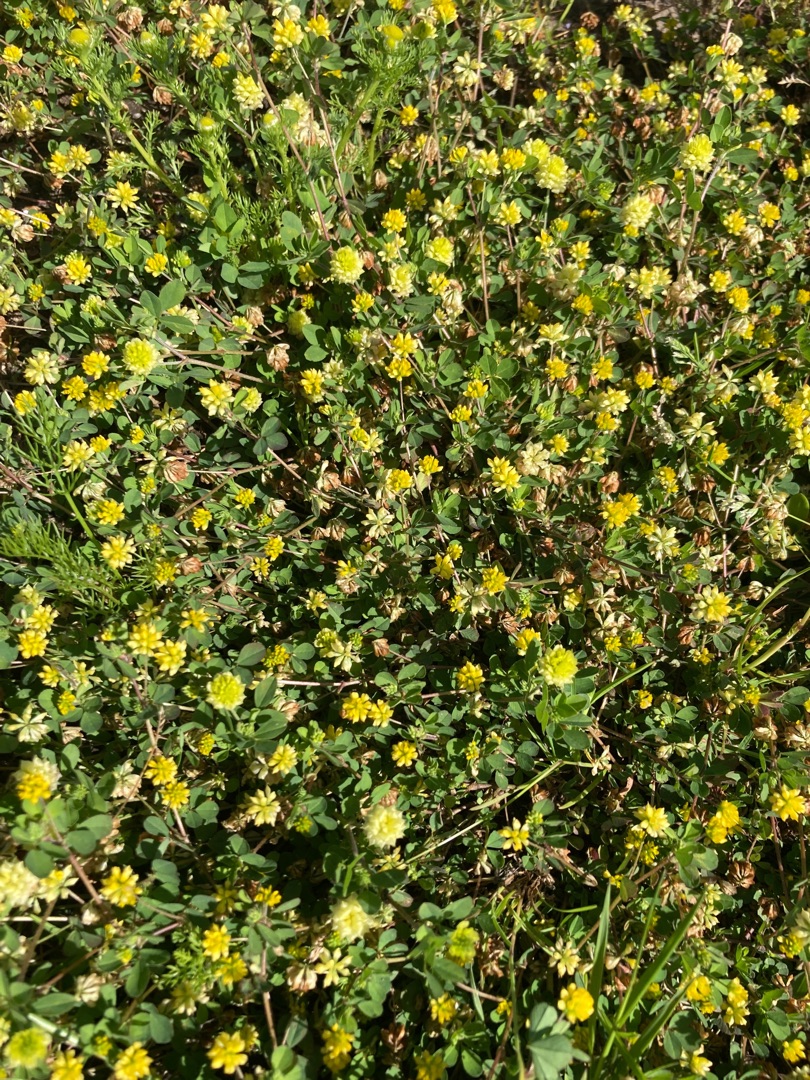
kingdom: Plantae
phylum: Tracheophyta
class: Magnoliopsida
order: Fabales
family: Fabaceae
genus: Trifolium
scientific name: Trifolium dubium
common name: Fin kløver
